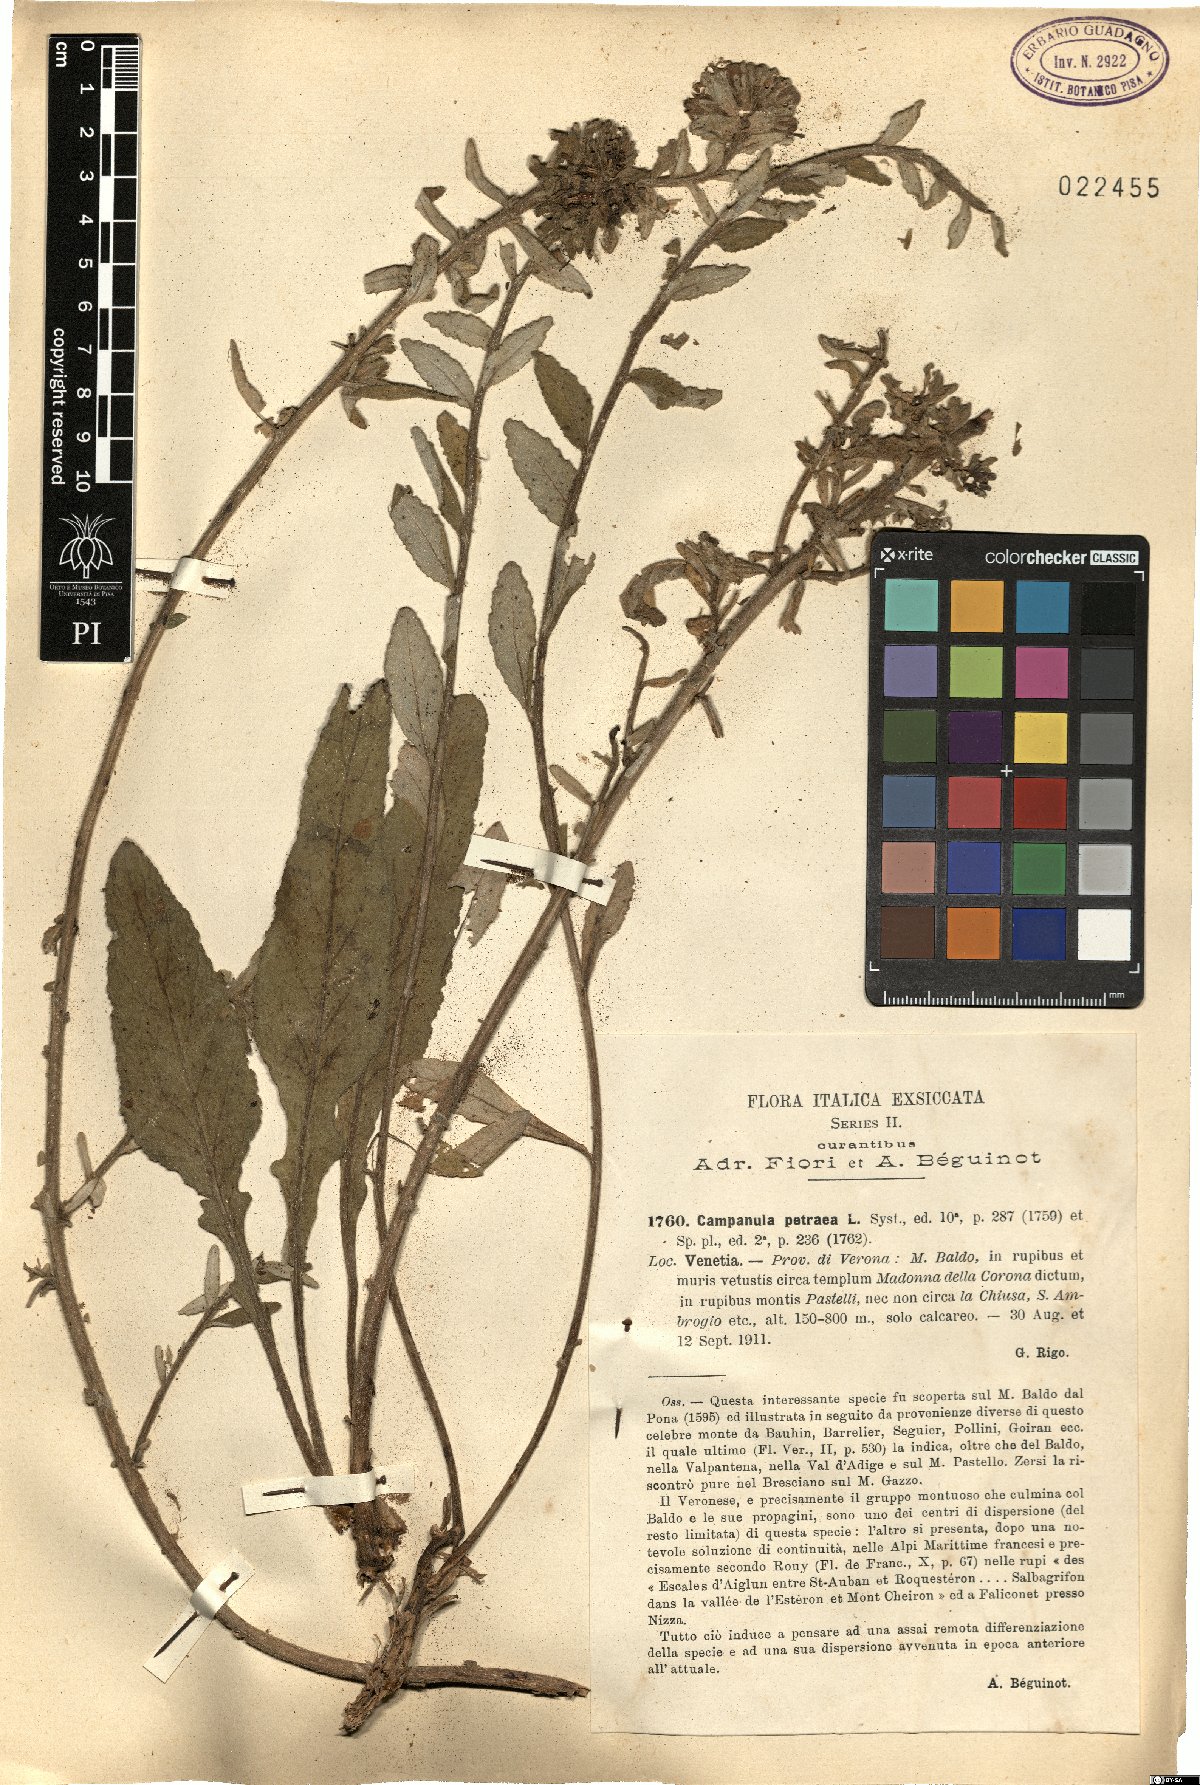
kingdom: Plantae
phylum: Tracheophyta
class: Magnoliopsida
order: Asterales
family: Campanulaceae
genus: Campanula
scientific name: Campanula petraea
